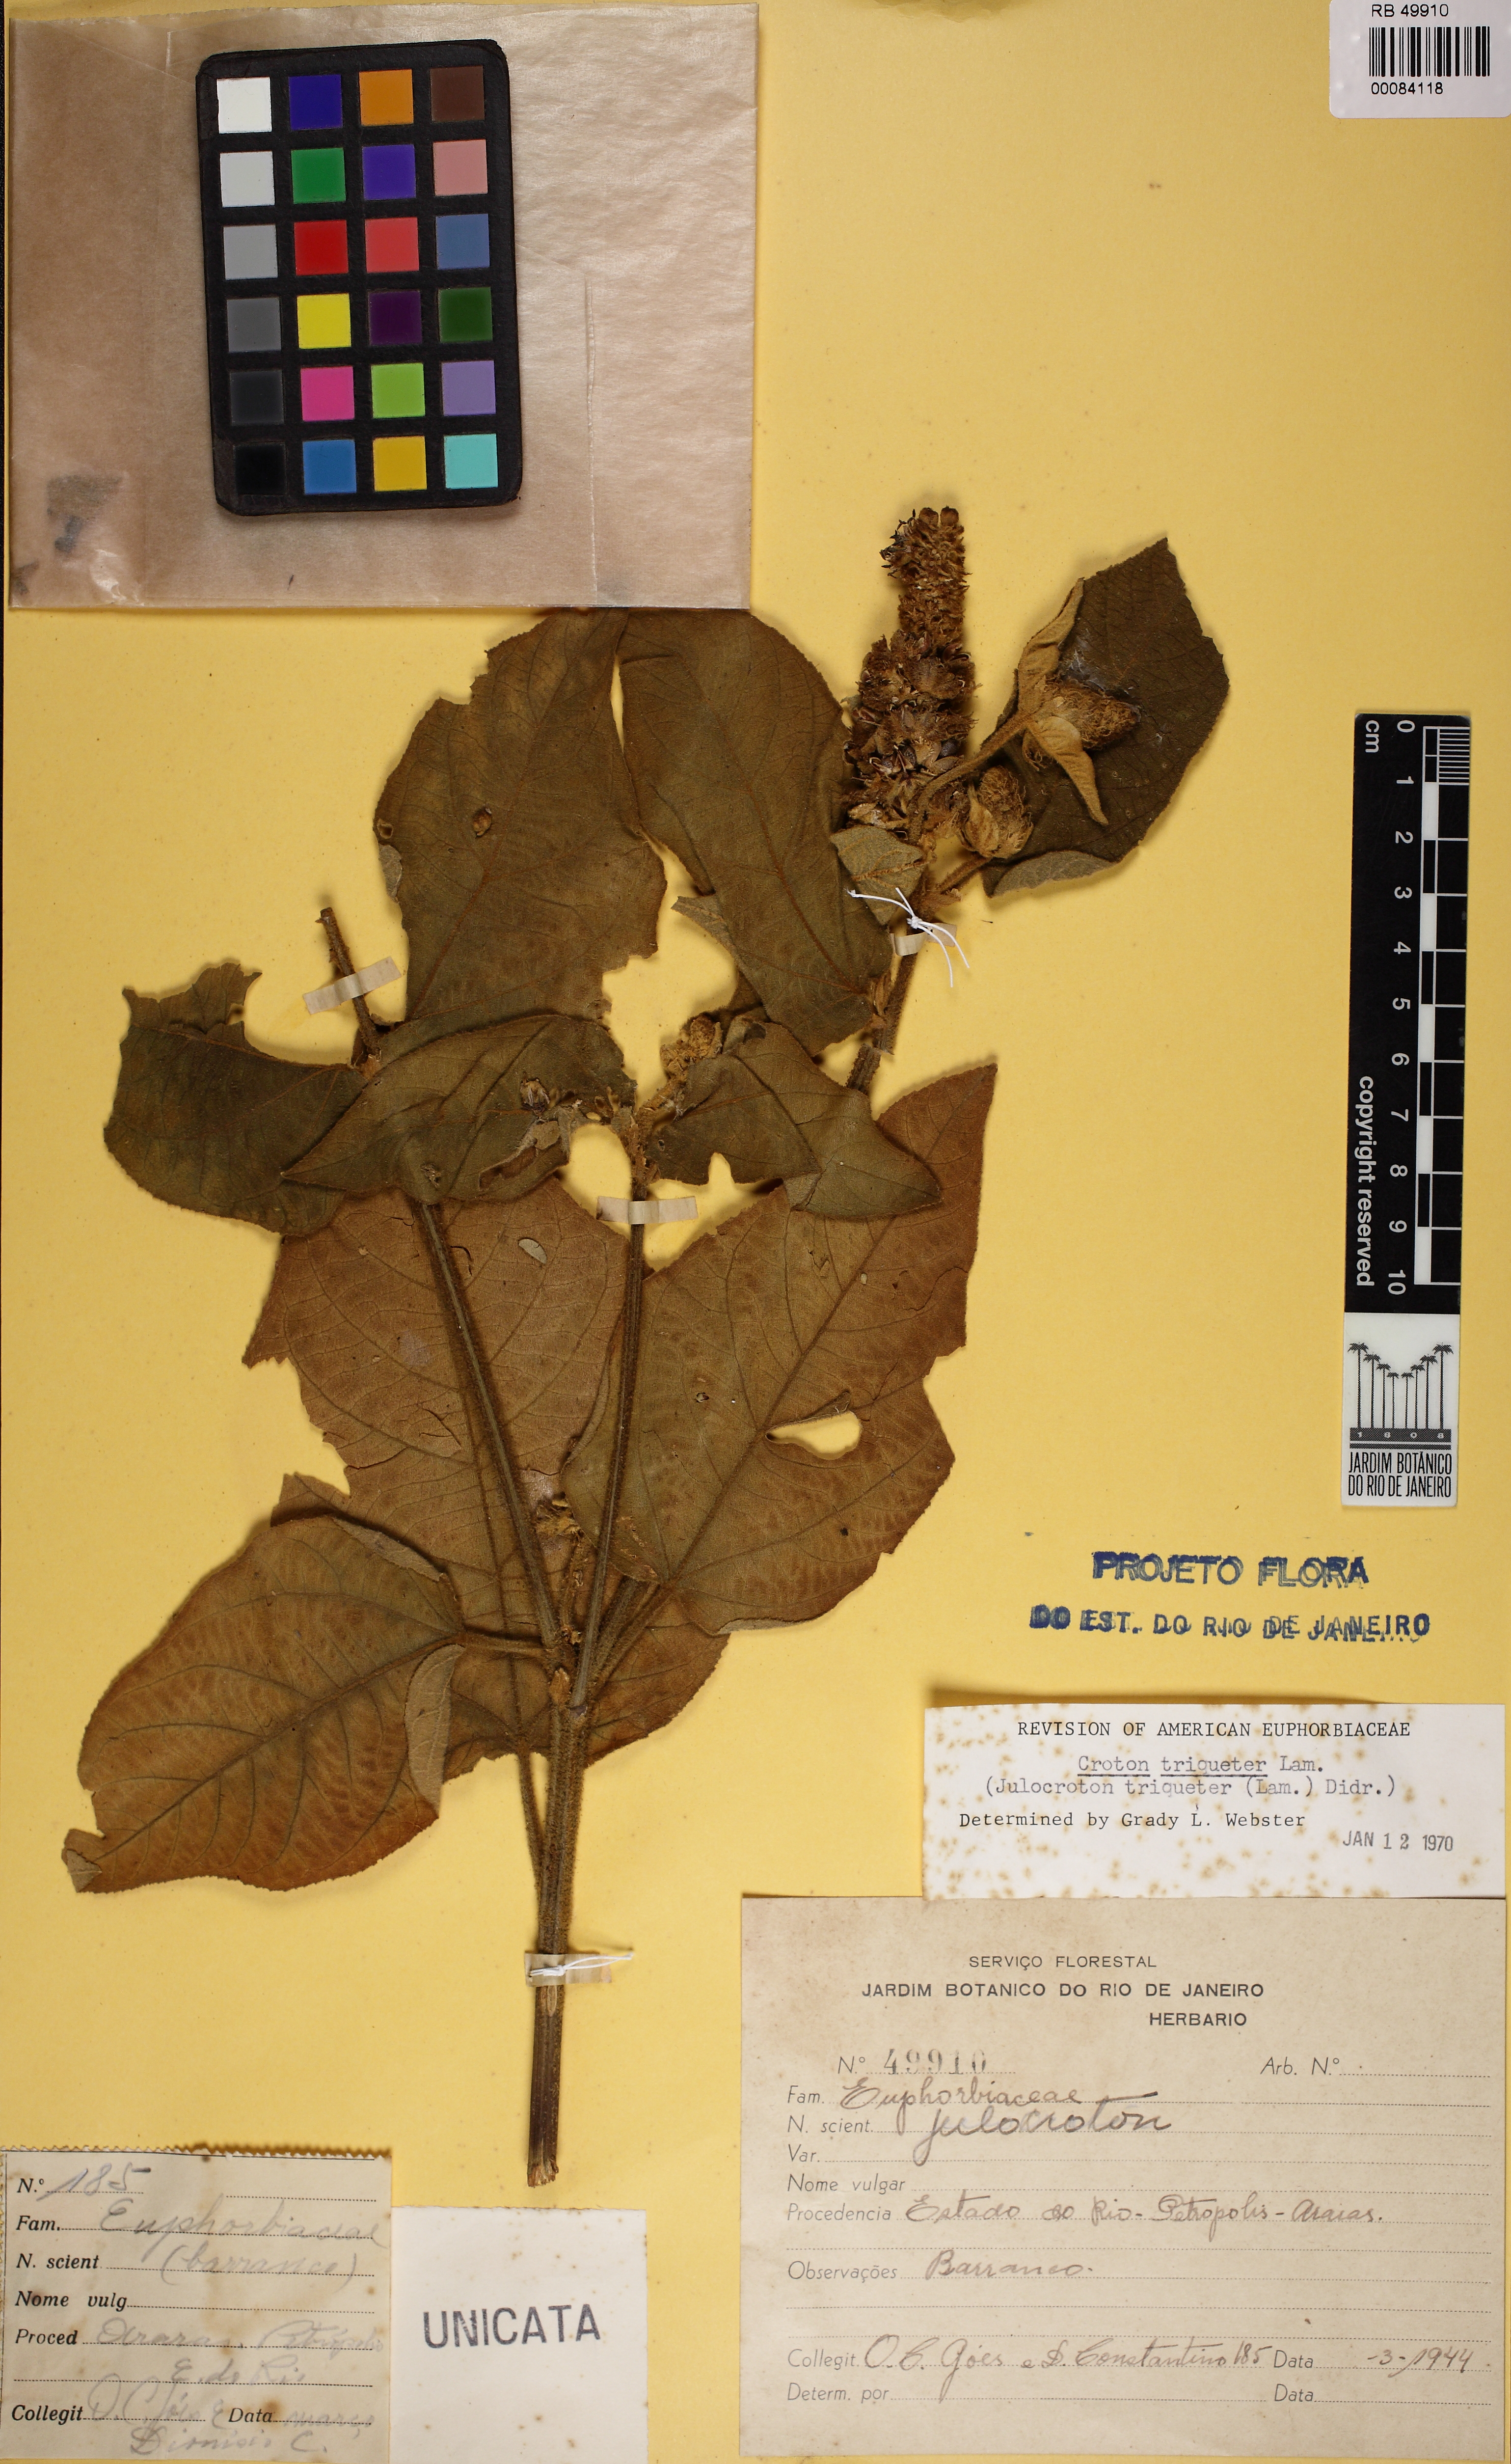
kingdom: Plantae
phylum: Tracheophyta
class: Magnoliopsida
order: Malpighiales
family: Euphorbiaceae
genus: Croton
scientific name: Croton triqueter
